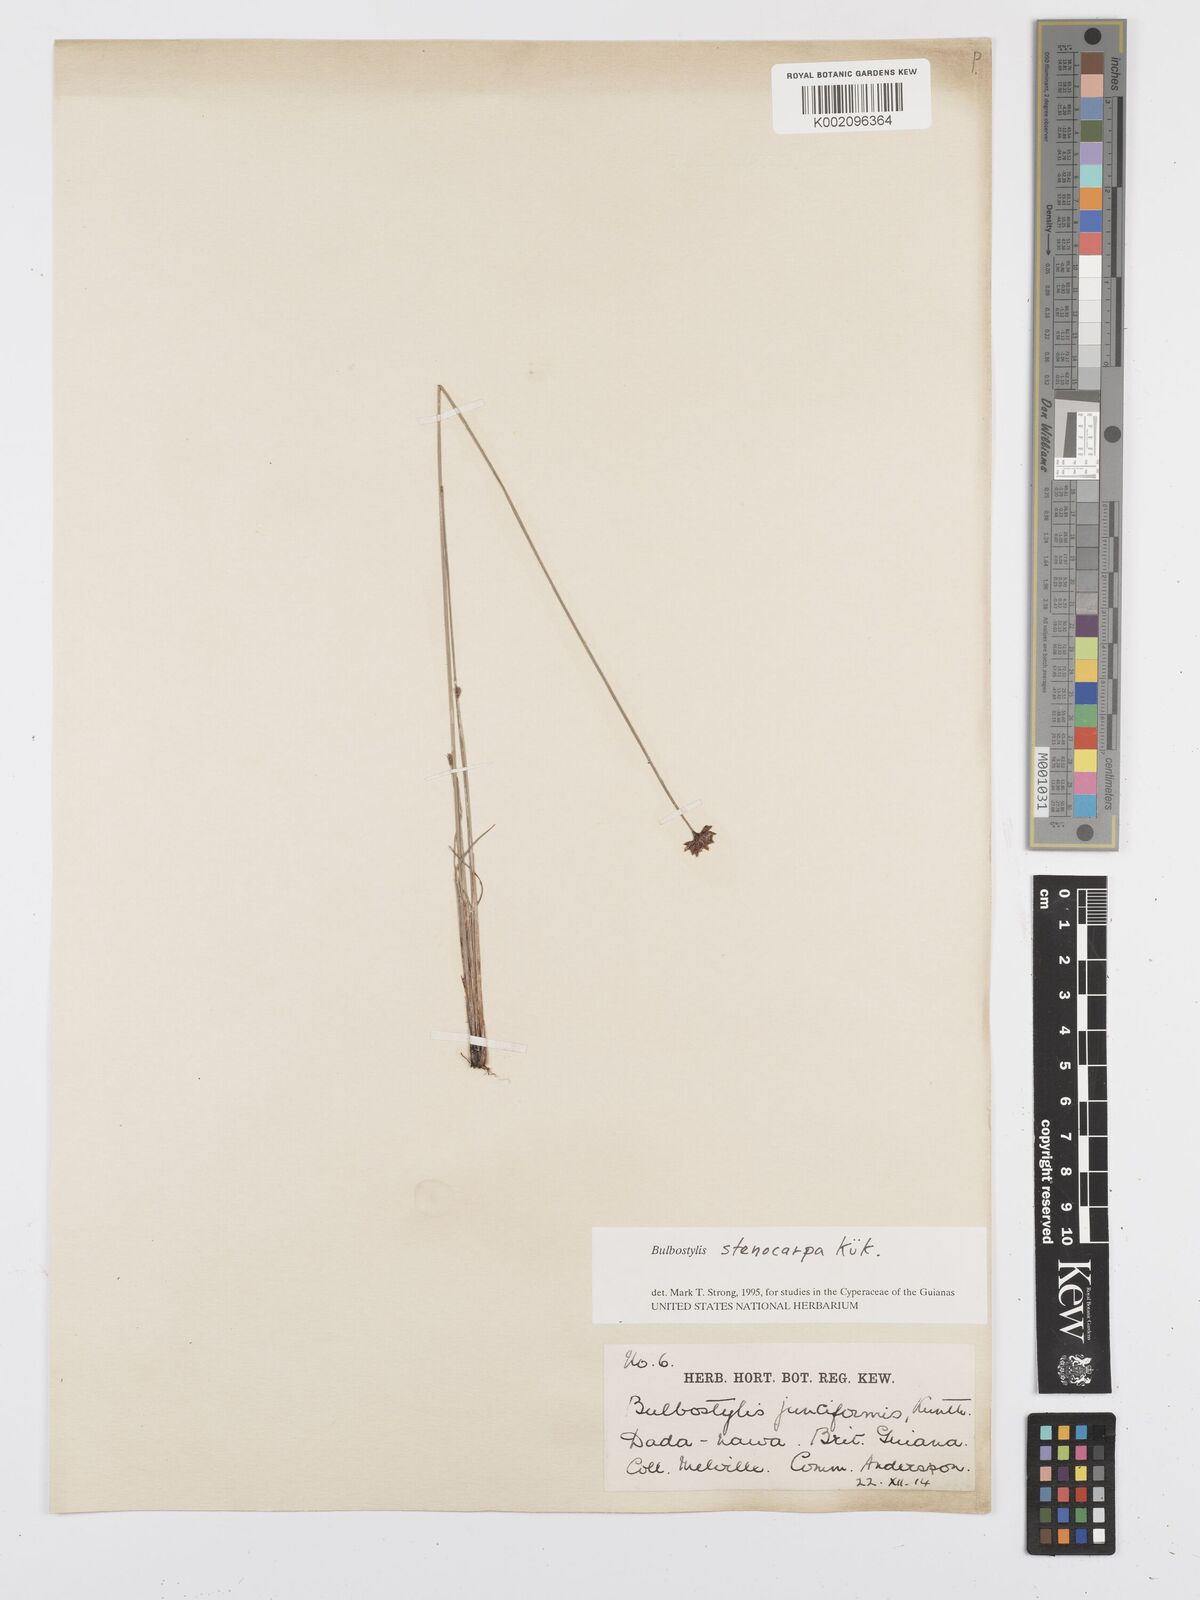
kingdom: Plantae
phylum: Tracheophyta
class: Liliopsida
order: Poales
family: Cyperaceae
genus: Bulbostylis
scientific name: Bulbostylis stenocarpa
